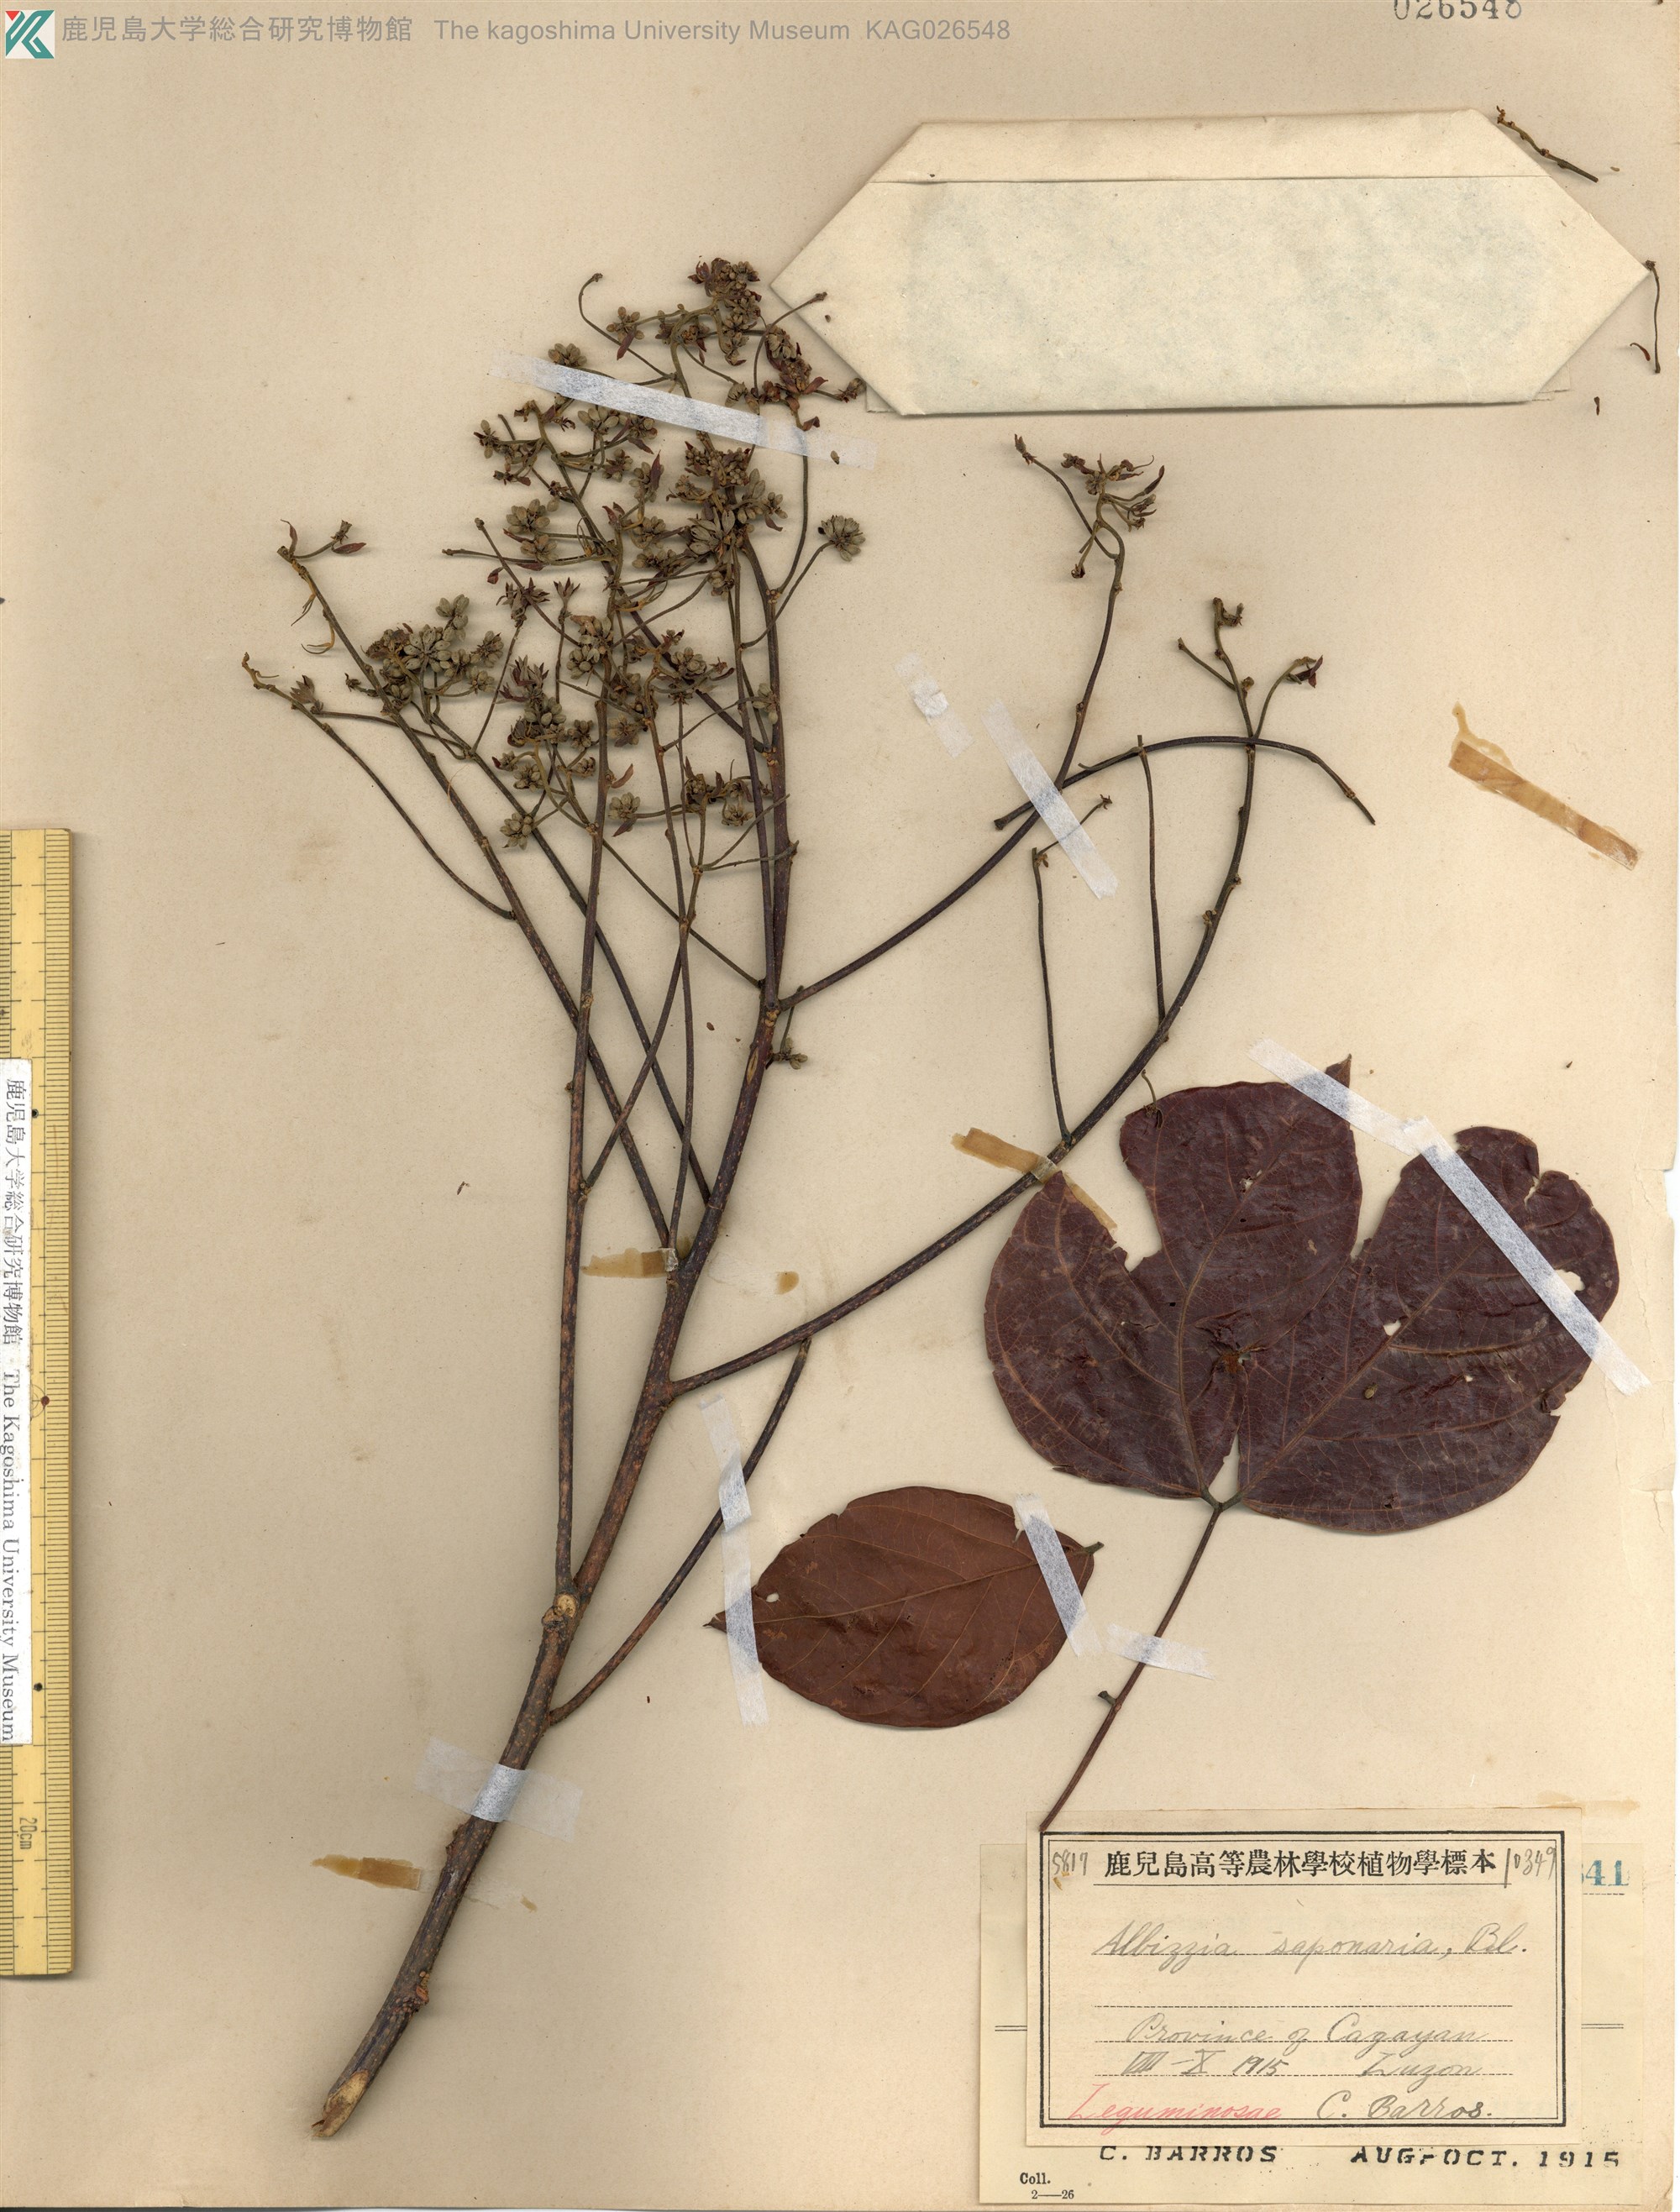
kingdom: Plantae
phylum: Tracheophyta
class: Magnoliopsida
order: Fabales
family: Fabaceae
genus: Albizia
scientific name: Albizia saponaria
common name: Whiteflower albizia
